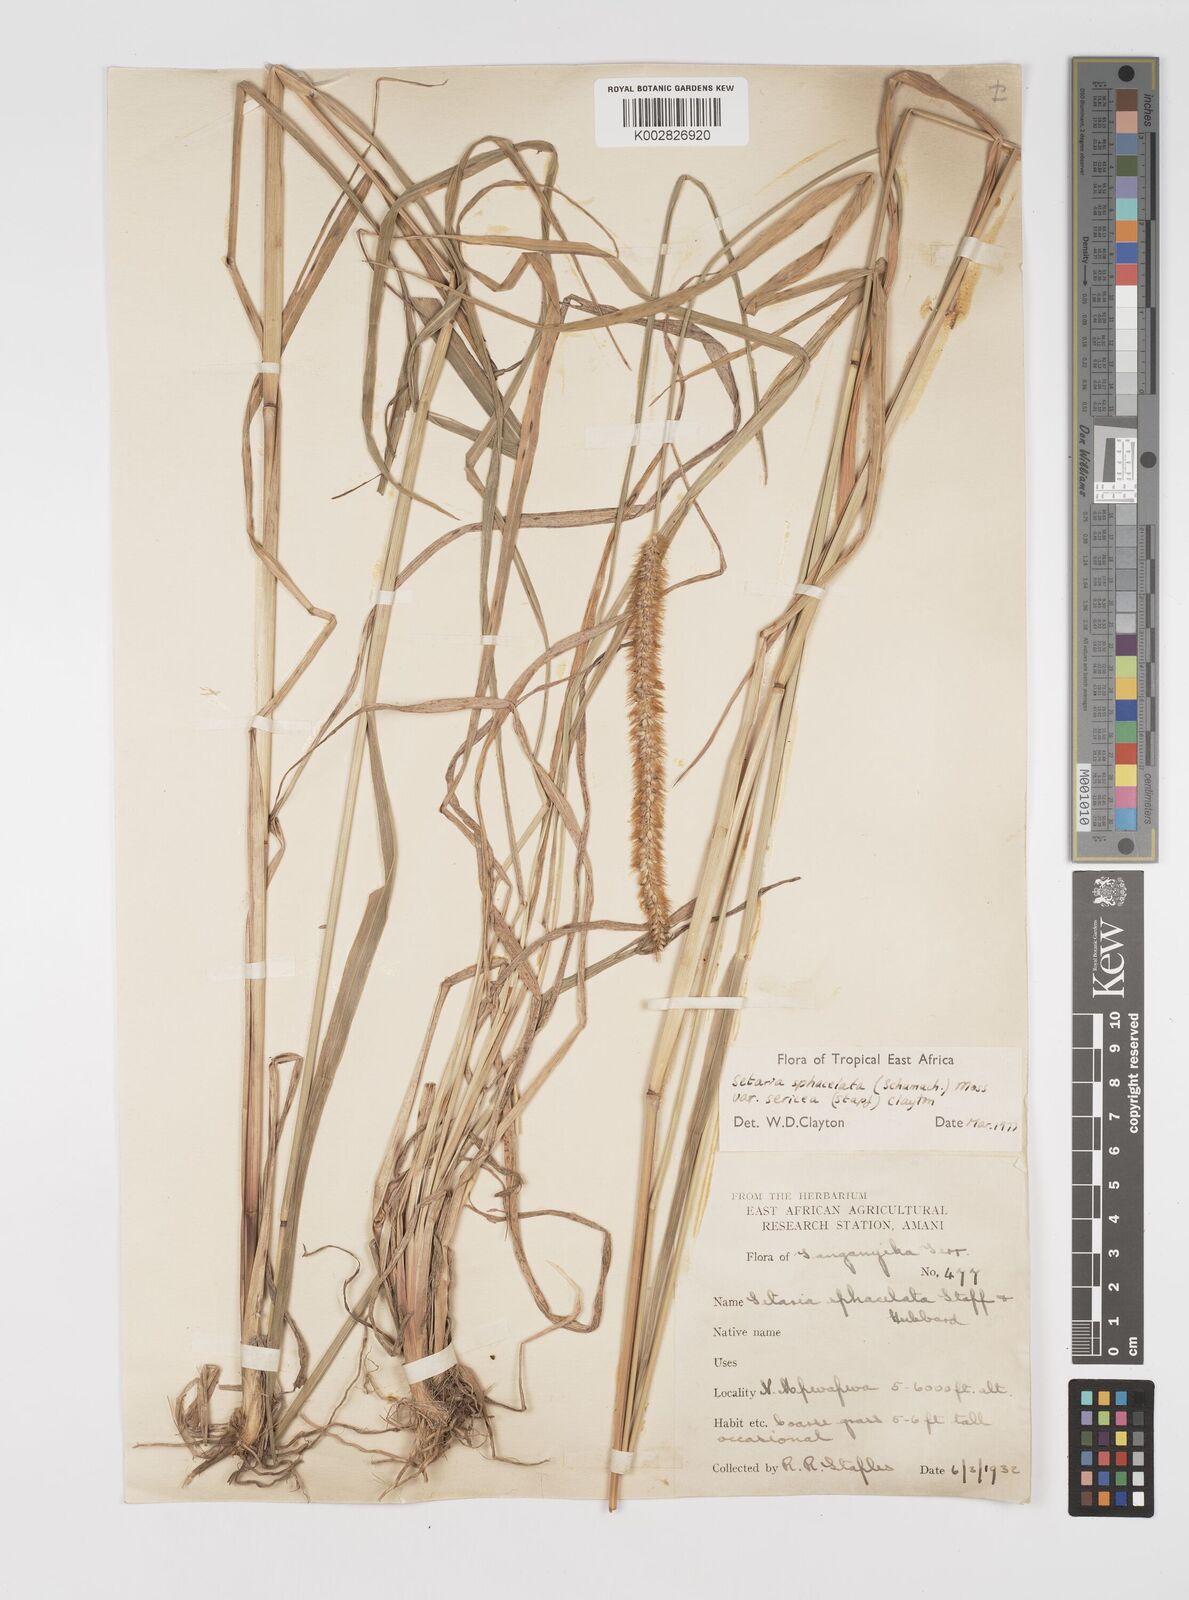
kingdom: Plantae
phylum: Tracheophyta
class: Liliopsida
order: Poales
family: Poaceae
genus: Setaria
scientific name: Setaria sphacelata
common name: African bristlegrass
